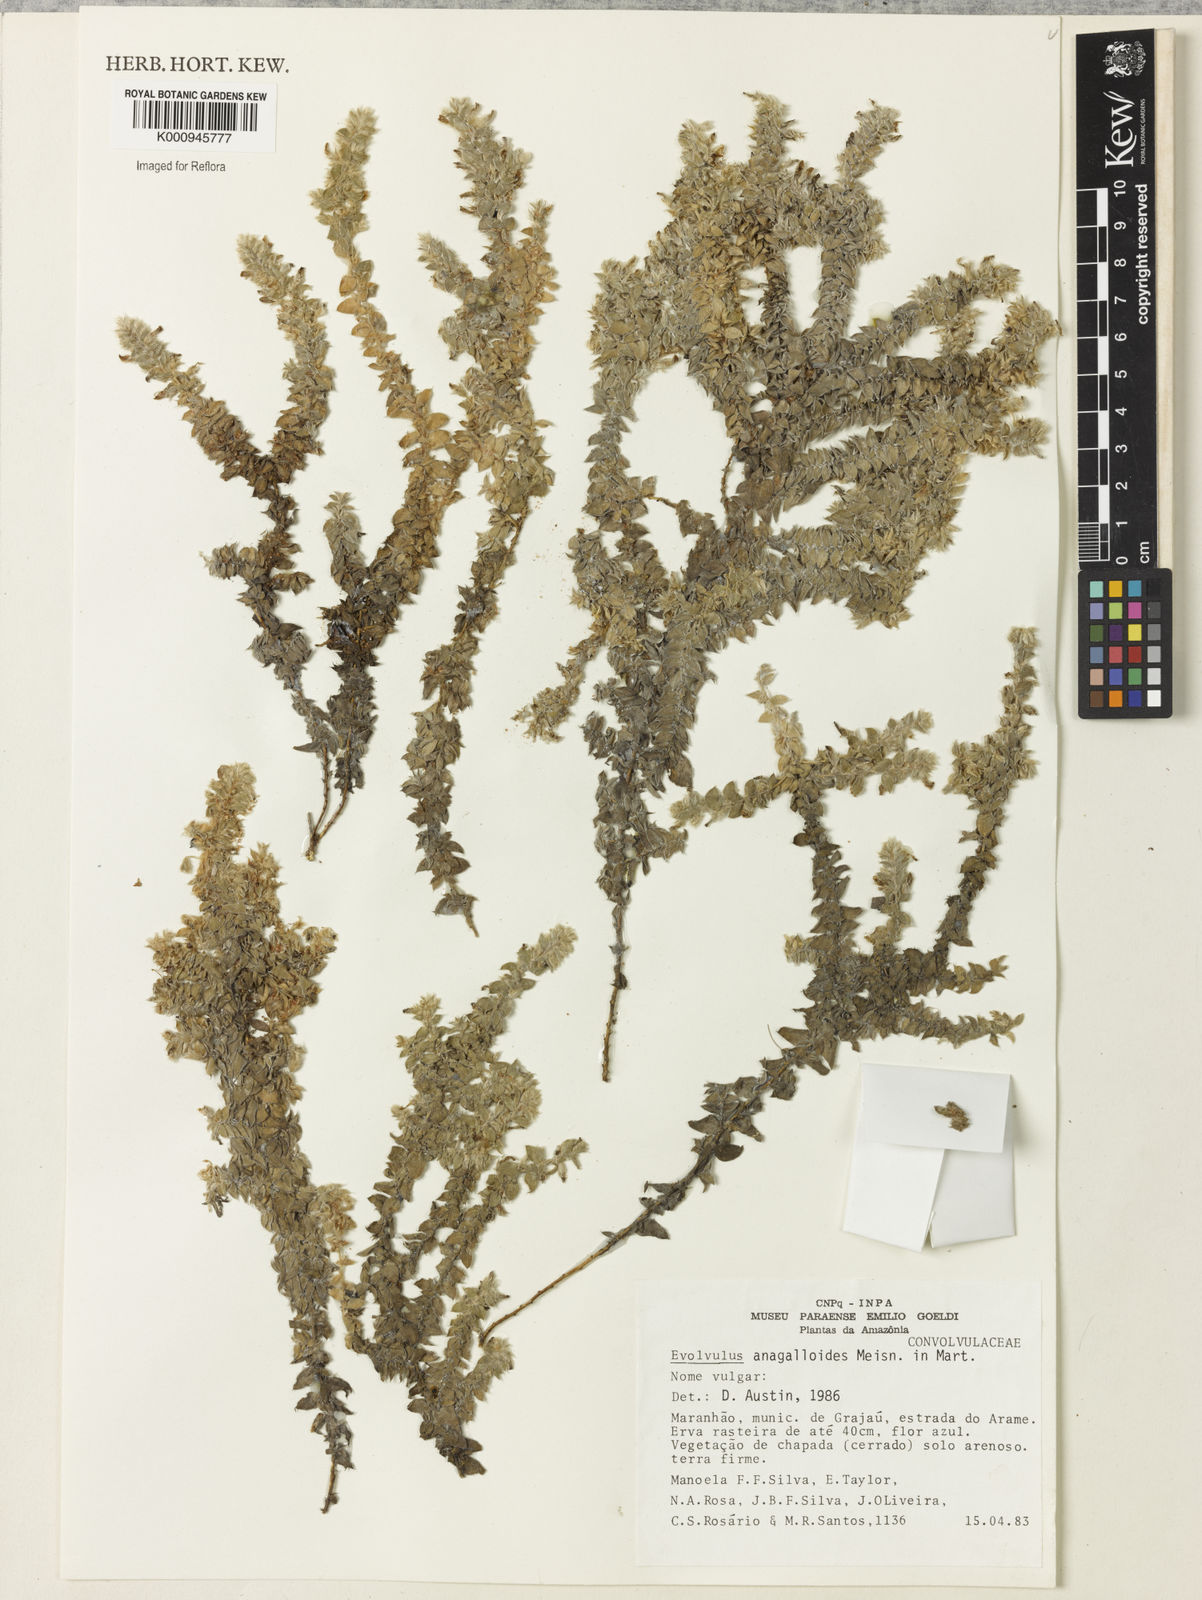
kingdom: Plantae
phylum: Tracheophyta
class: Magnoliopsida
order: Solanales
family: Convolvulaceae
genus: Evolvulus
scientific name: Evolvulus
